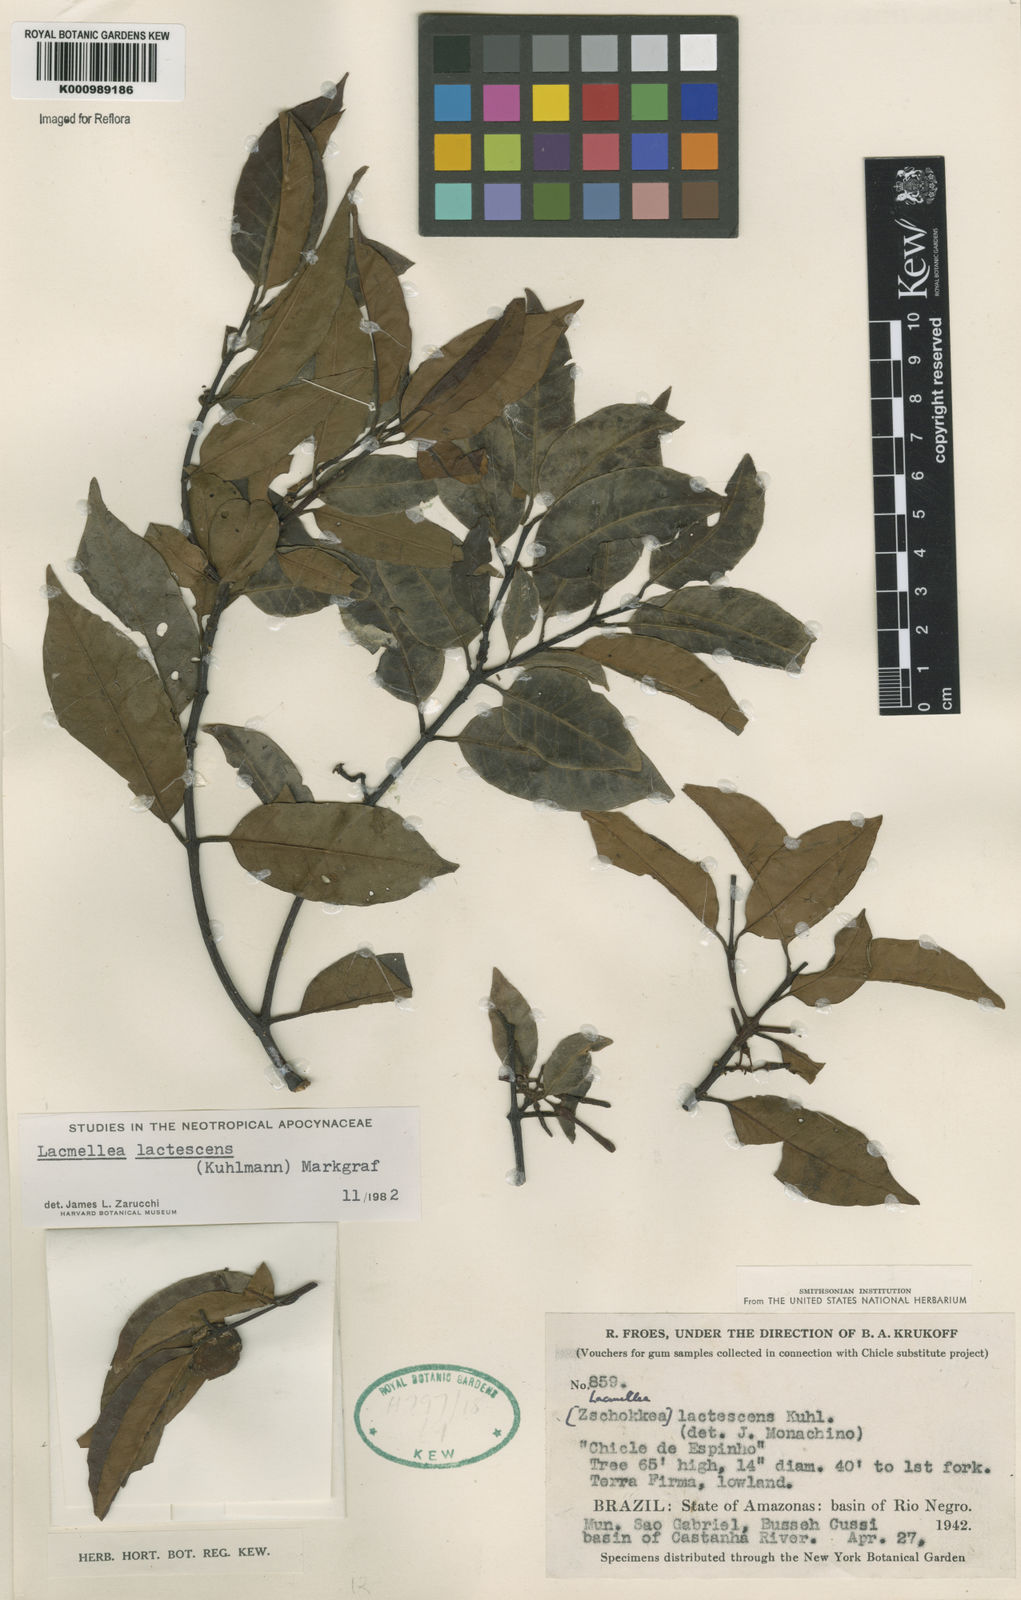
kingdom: Plantae
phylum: Tracheophyta
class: Magnoliopsida
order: Gentianales
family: Apocynaceae
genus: Lacmellea
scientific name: Lacmellea
